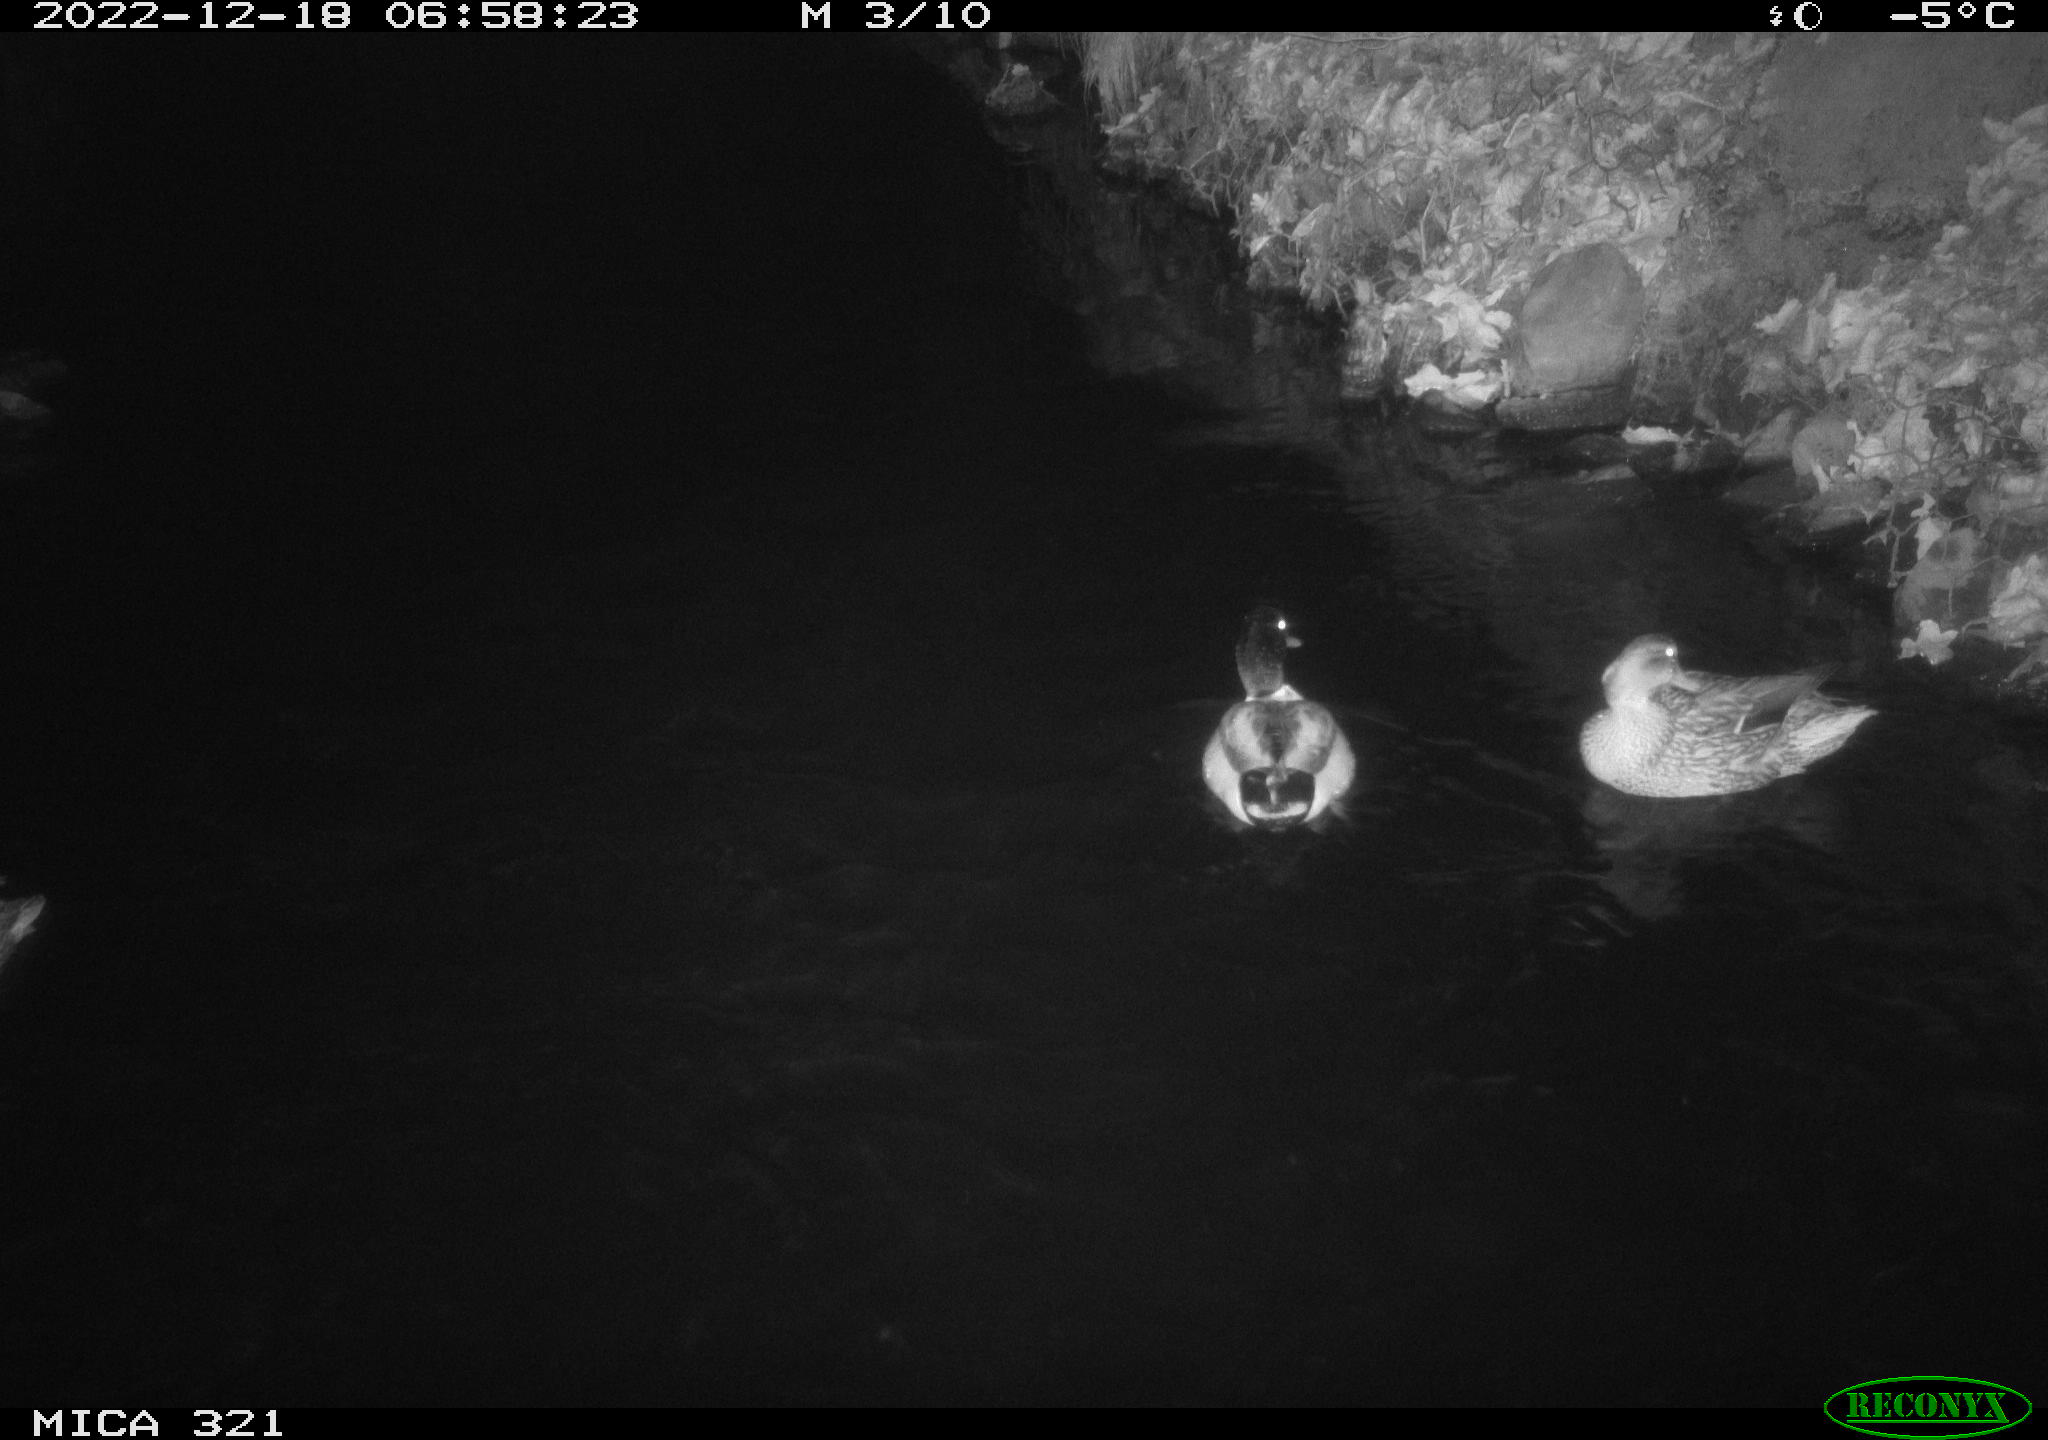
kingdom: Animalia
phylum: Chordata
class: Aves
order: Anseriformes
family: Anatidae
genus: Anas
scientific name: Anas
